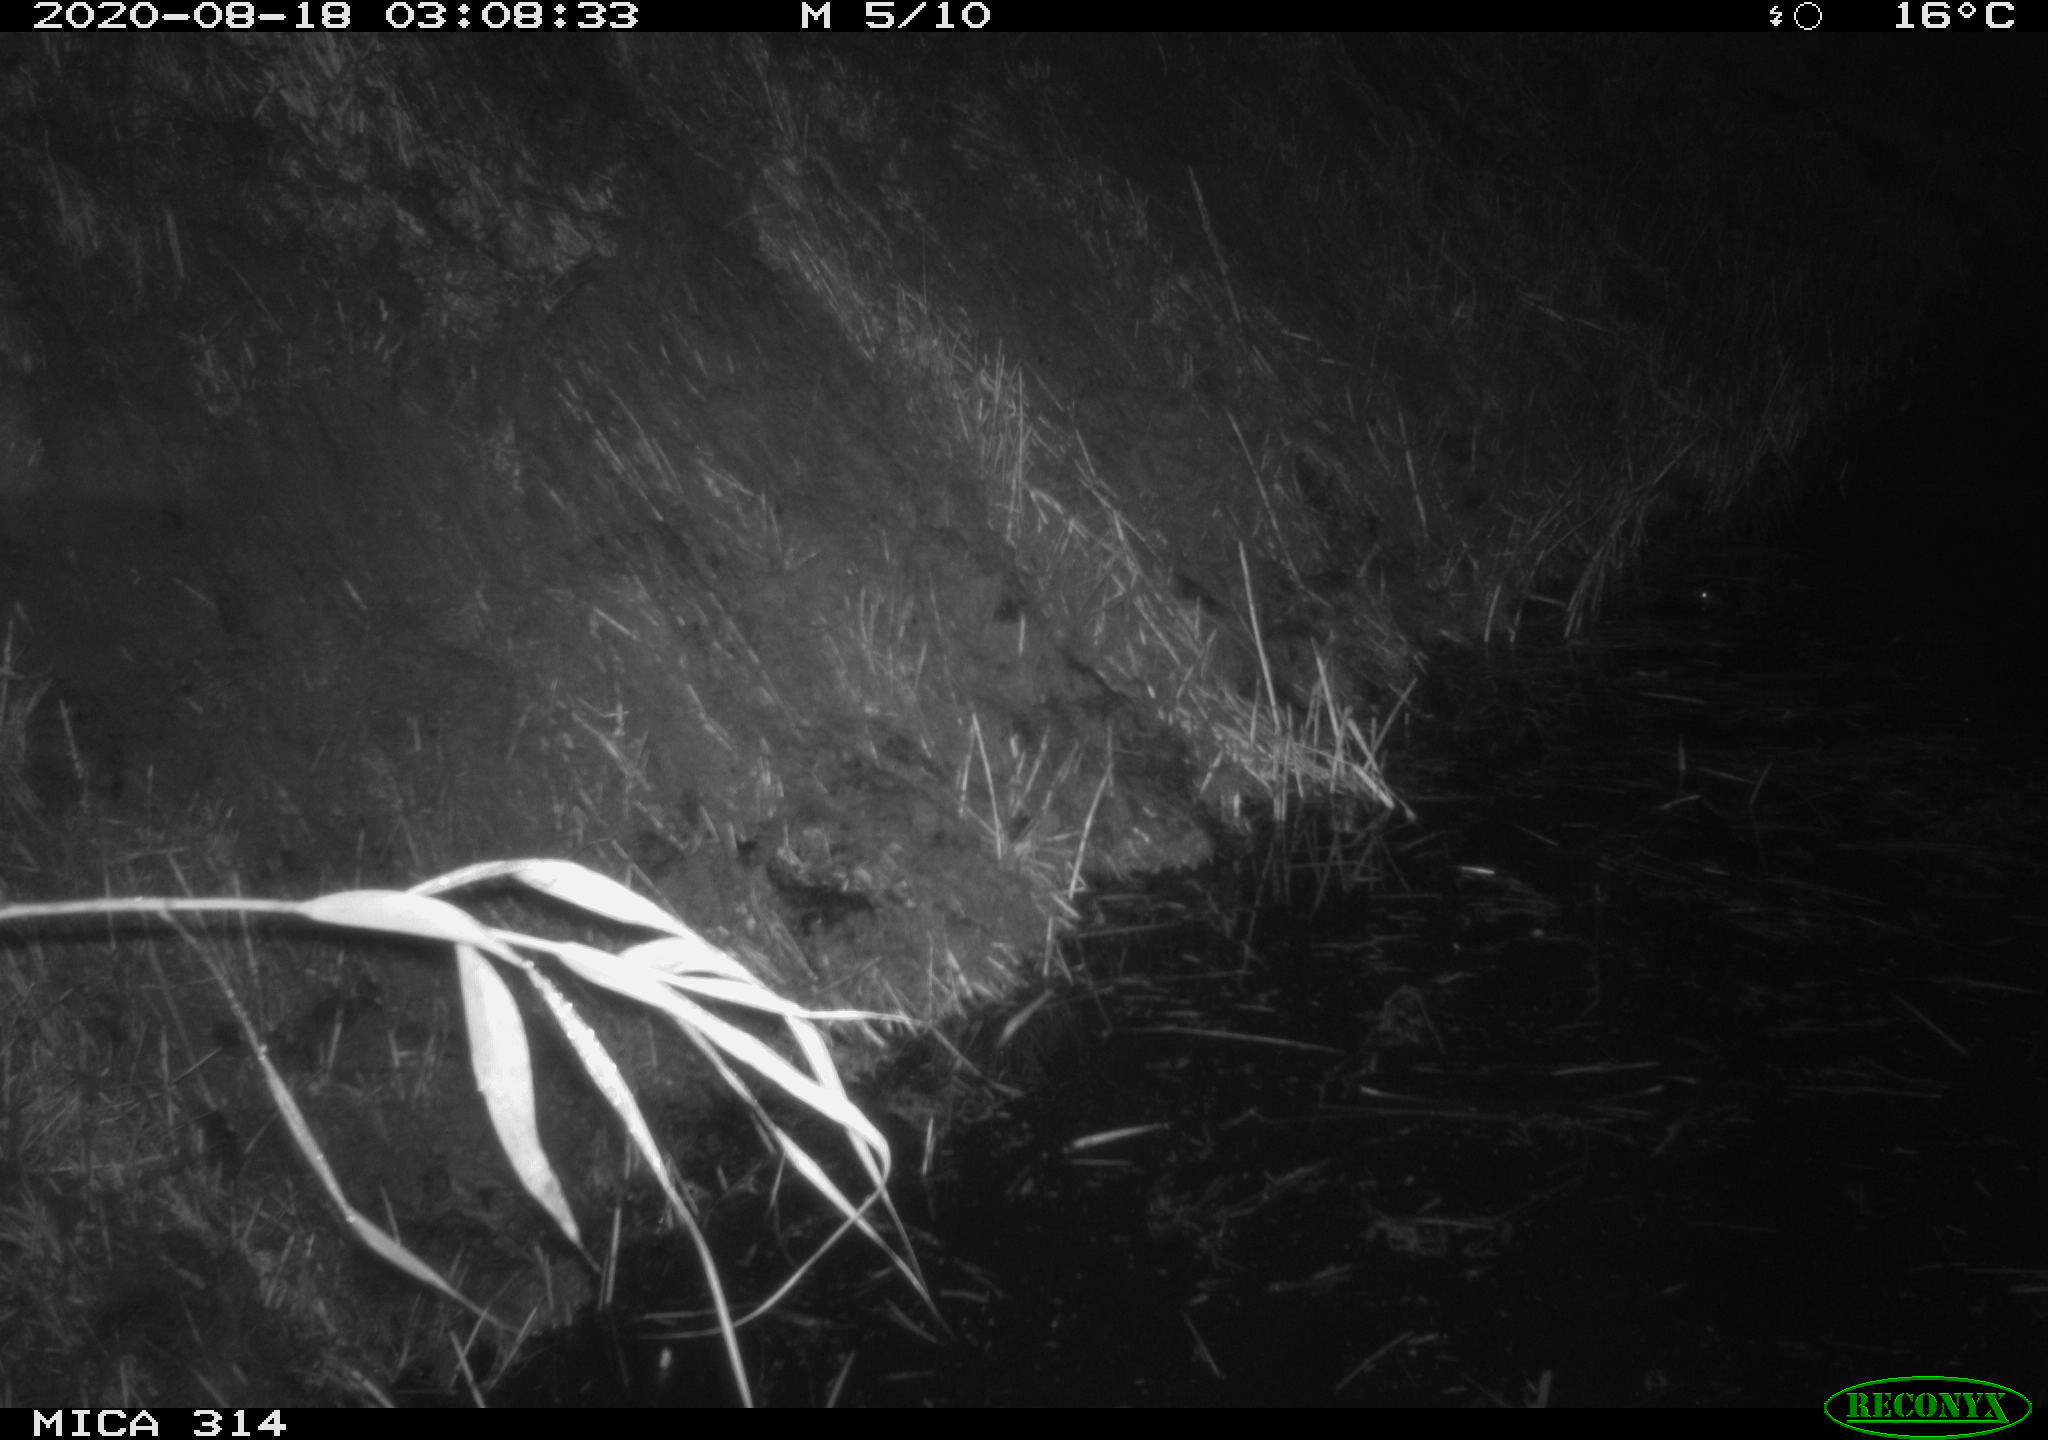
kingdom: Animalia
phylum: Chordata
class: Mammalia
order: Rodentia
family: Muridae
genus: Rattus
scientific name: Rattus norvegicus
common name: Brown rat
